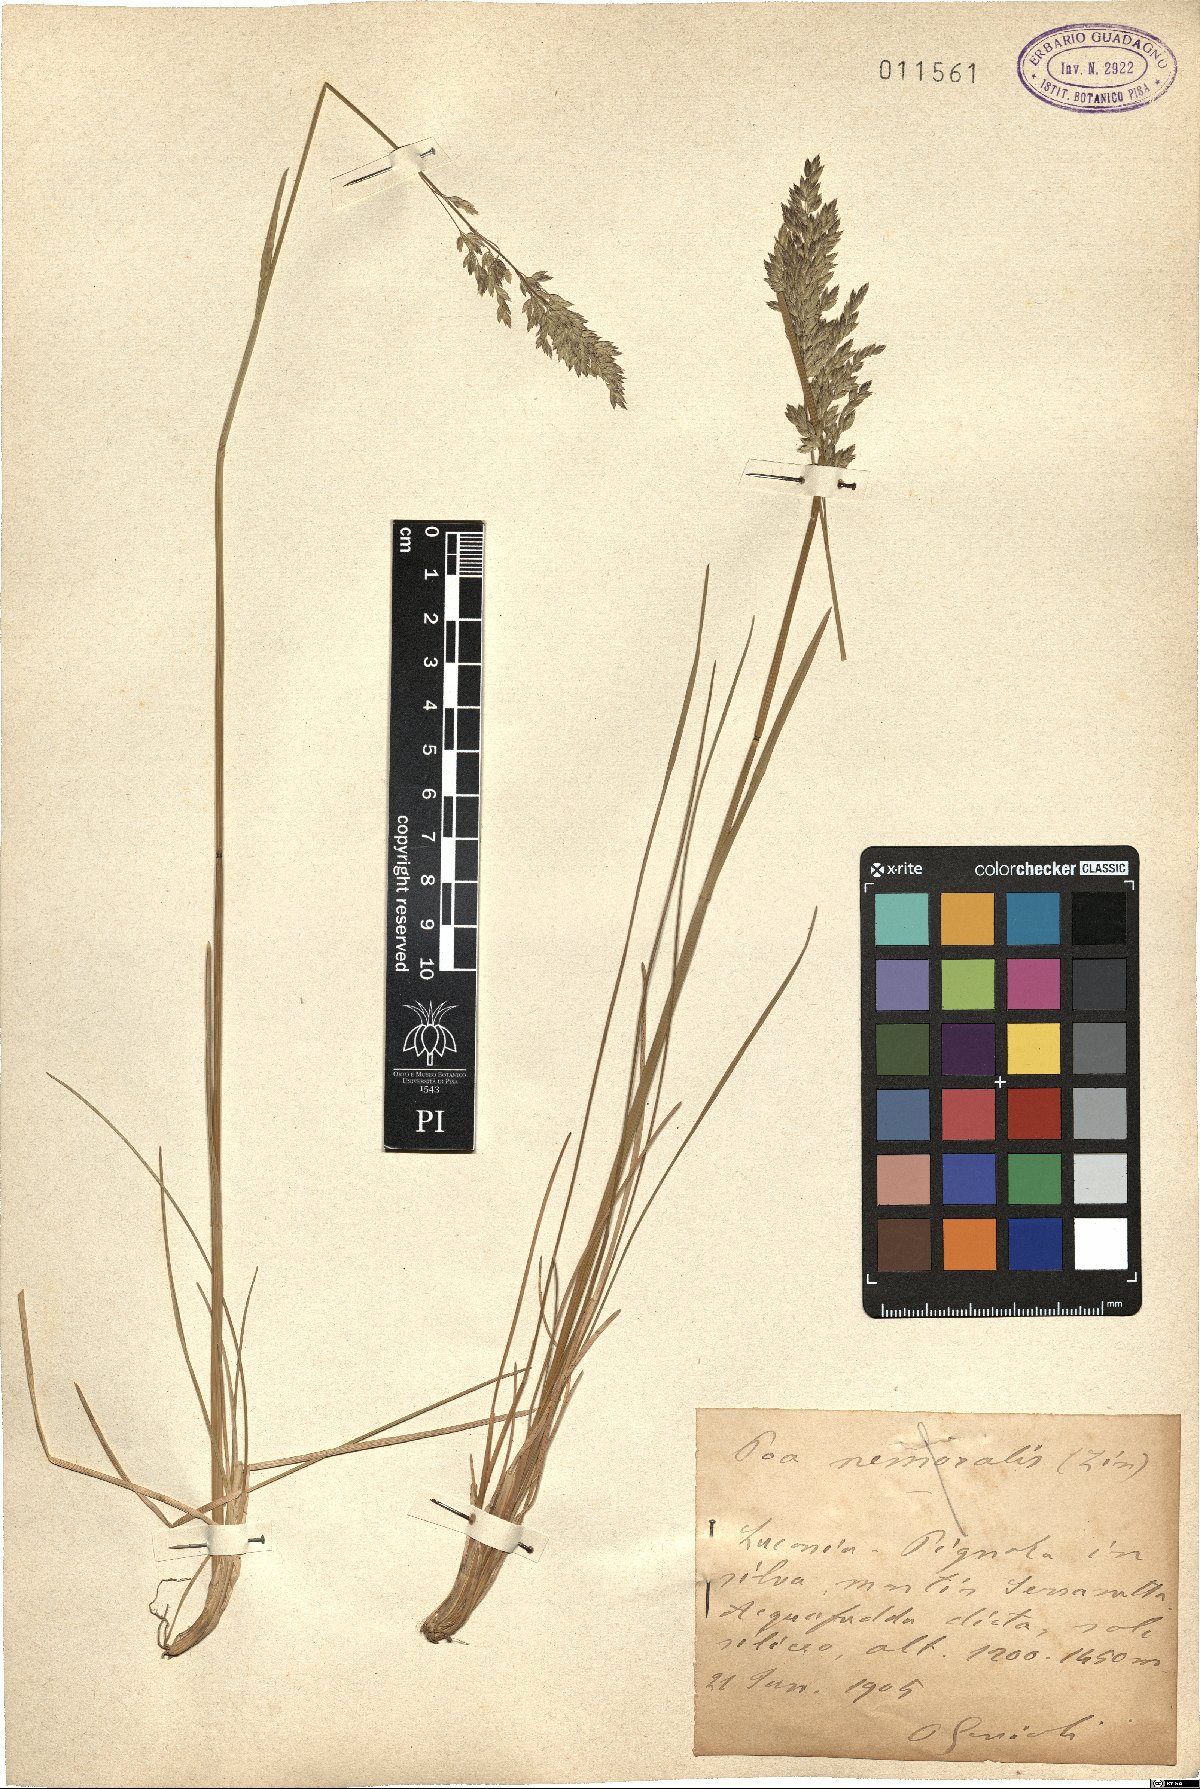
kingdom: Plantae
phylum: Tracheophyta
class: Liliopsida
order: Poales
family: Poaceae
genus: Poa
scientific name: Poa nemoralis
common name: Wood bluegrass
